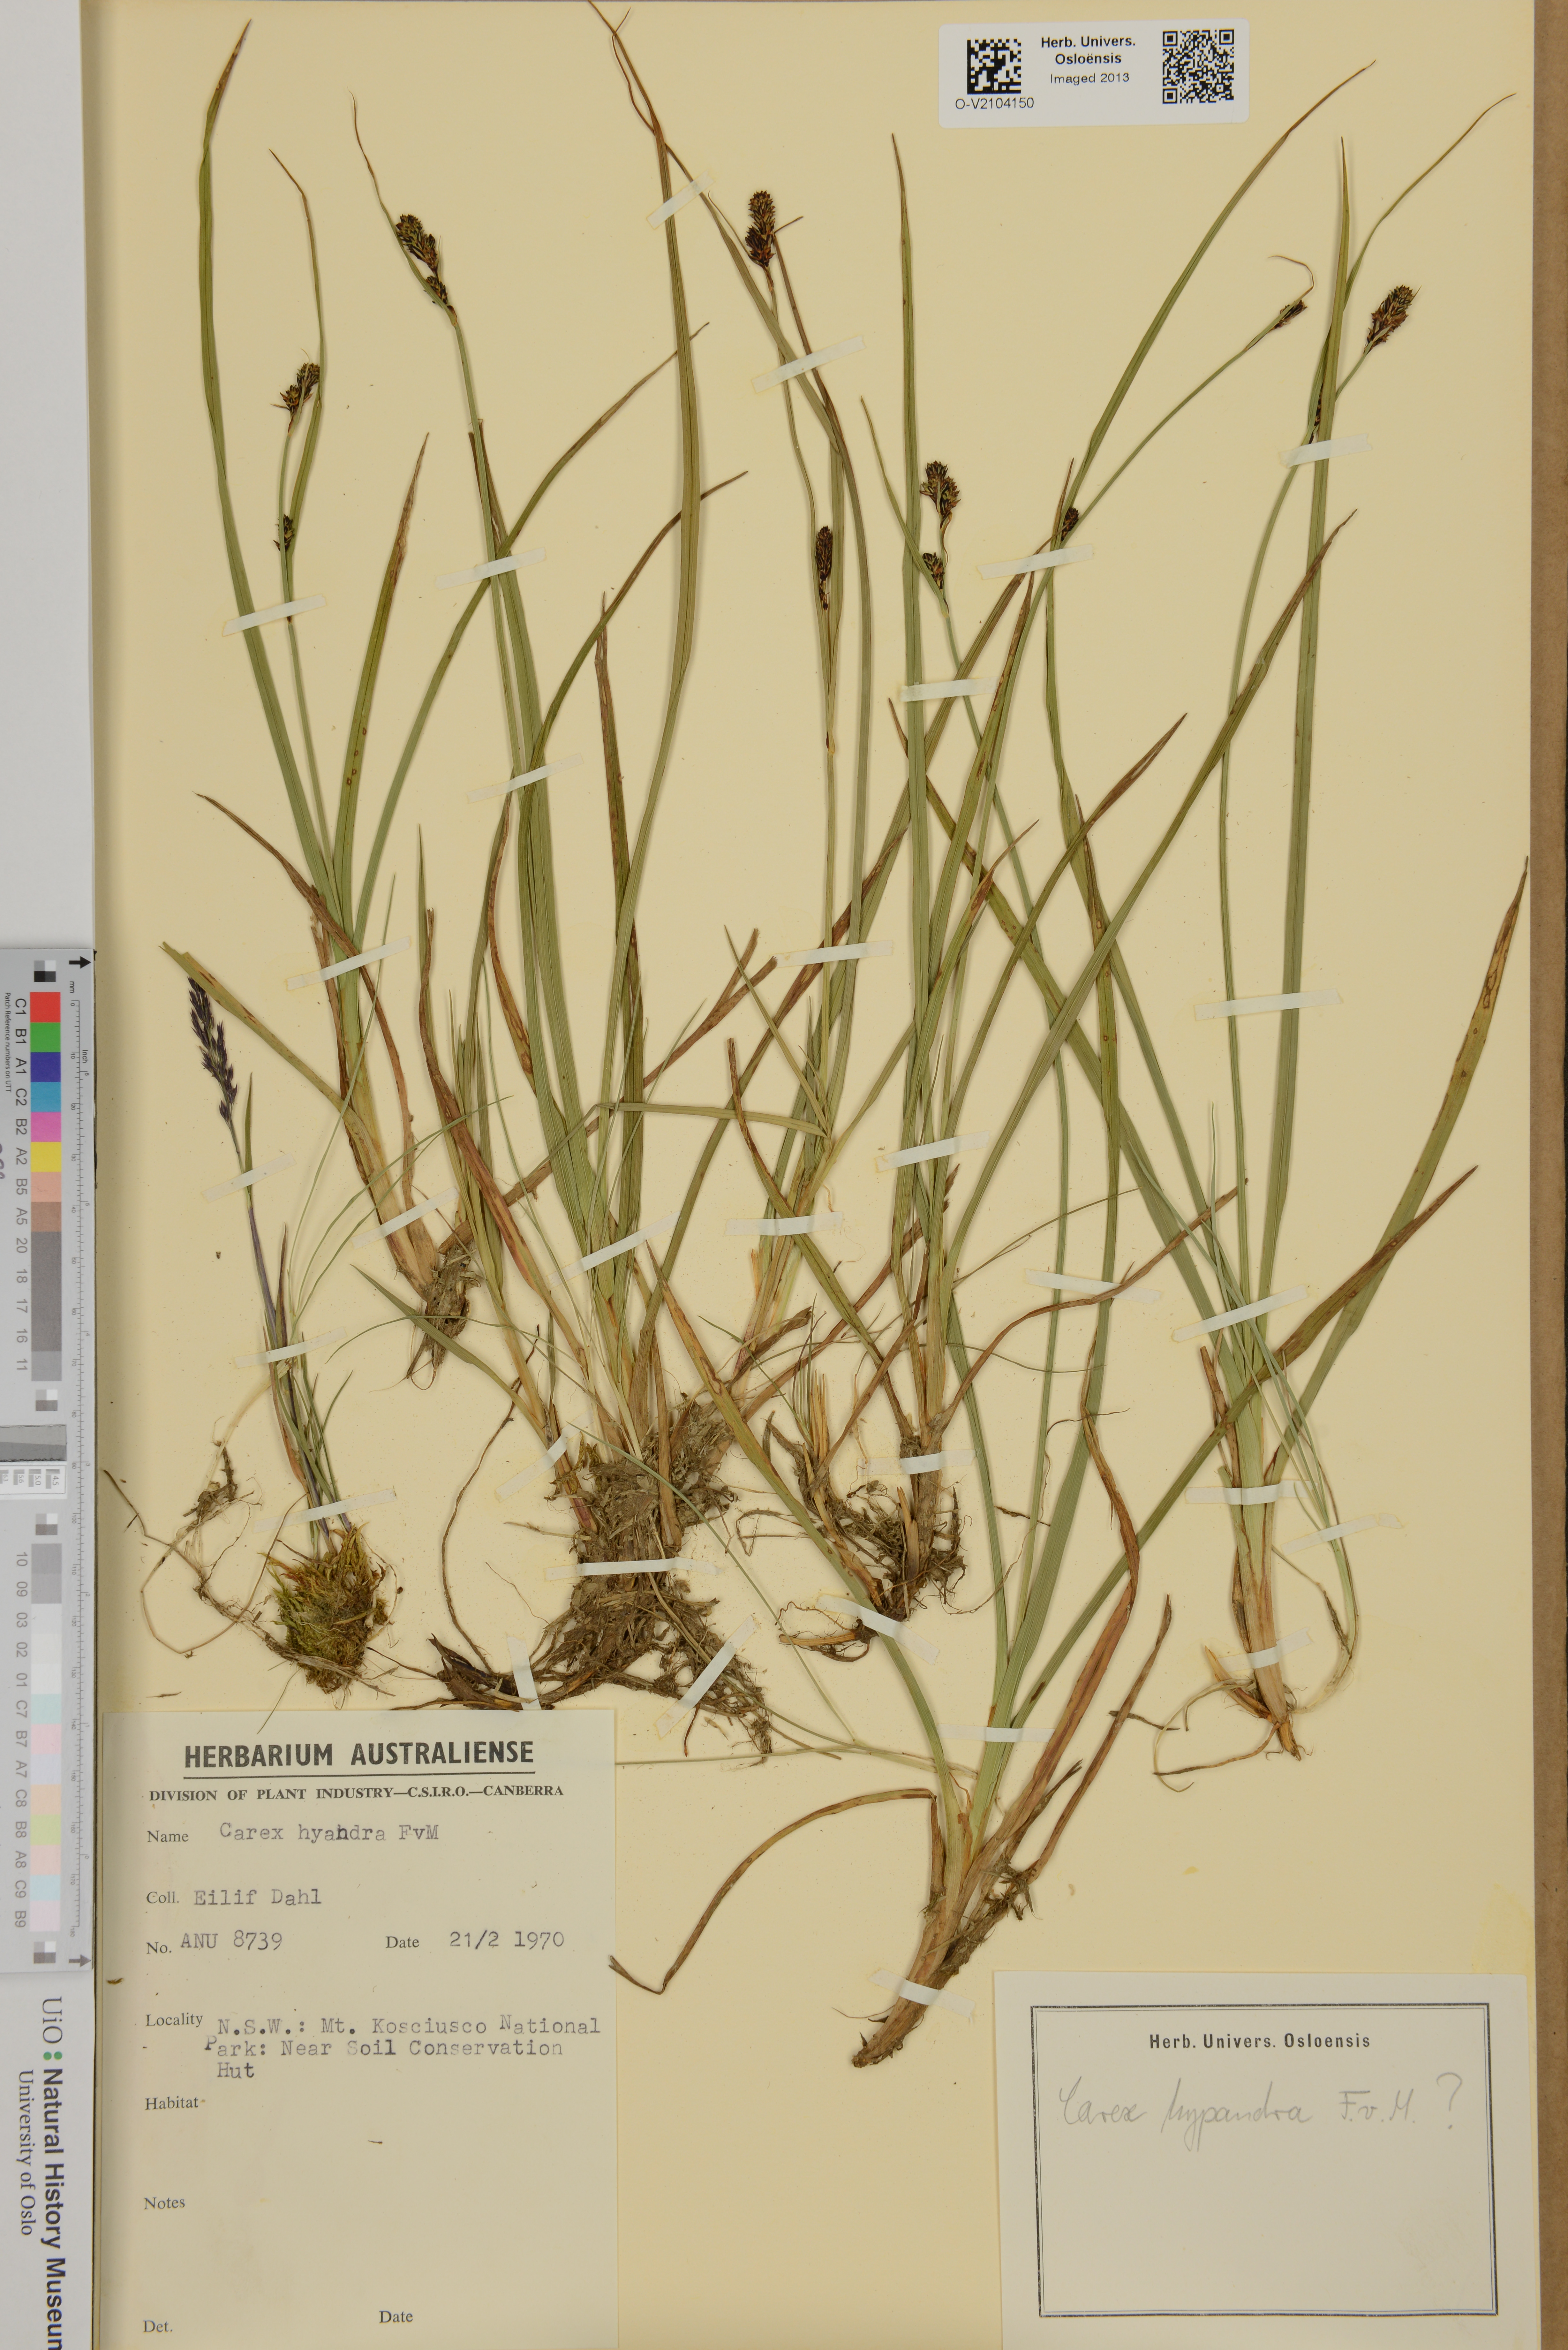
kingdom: Plantae
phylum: Tracheophyta
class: Liliopsida
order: Poales
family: Cyperaceae
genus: Carex
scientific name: Carex hypandra
